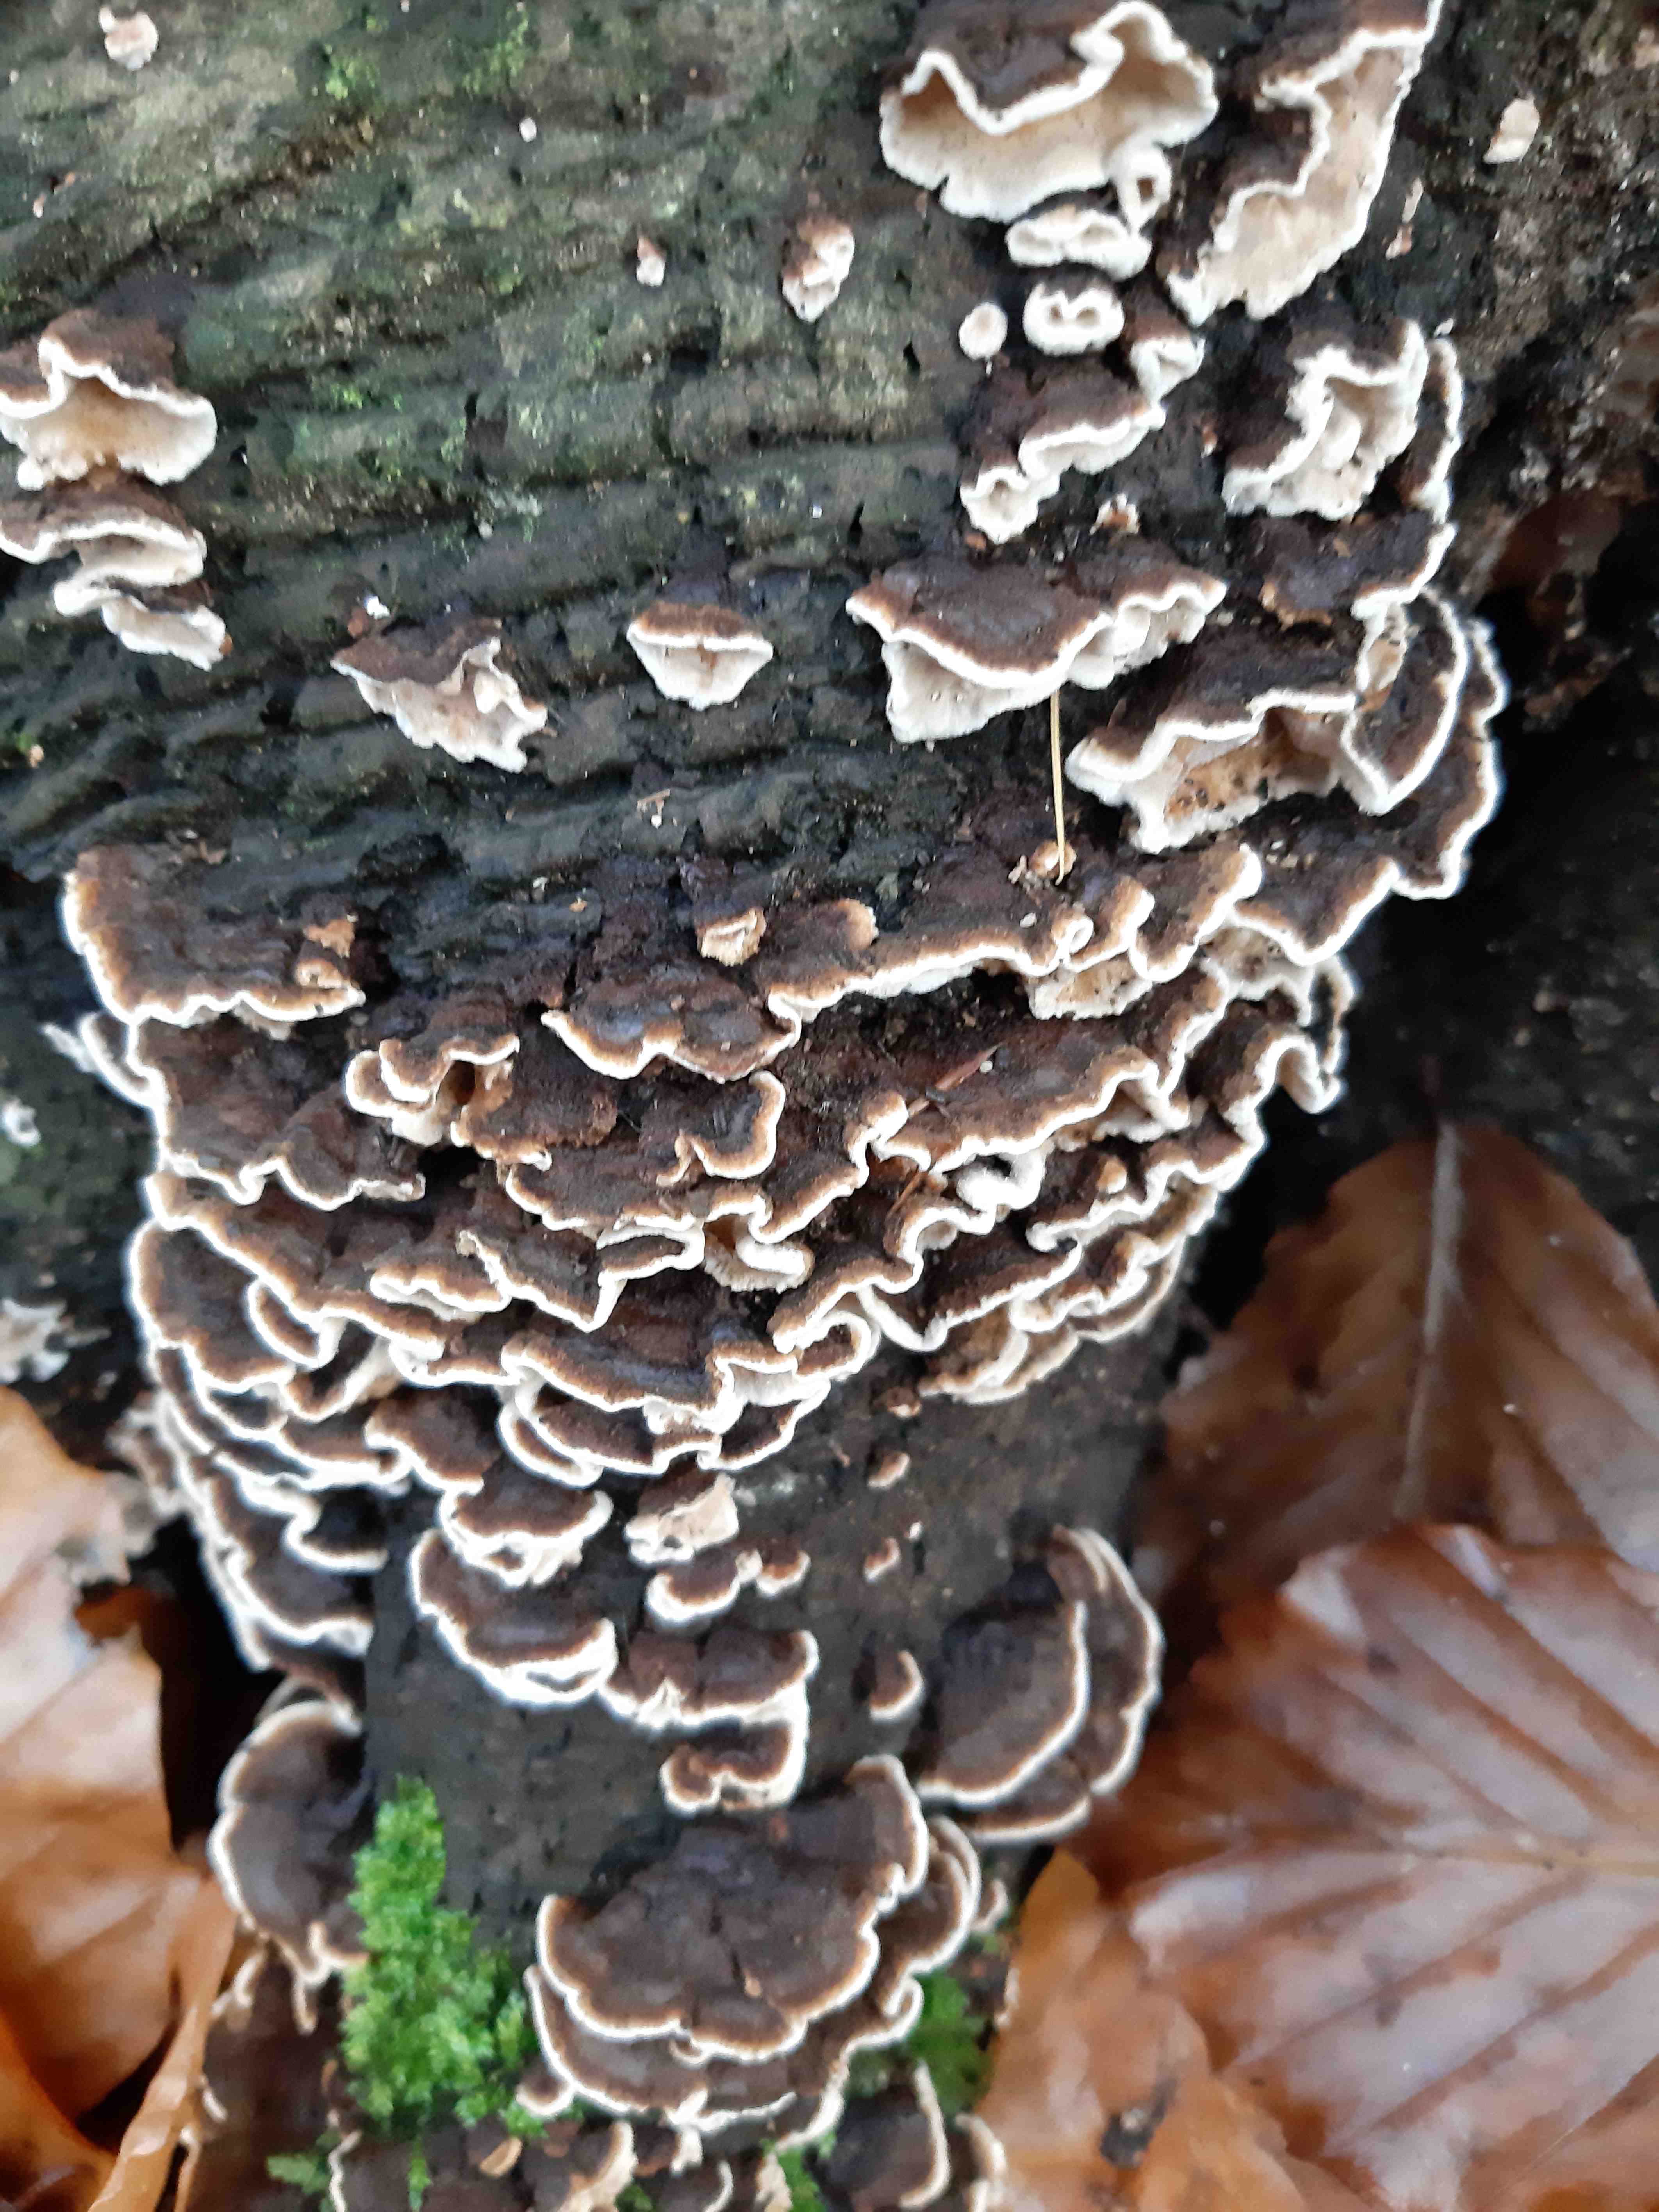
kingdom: Fungi
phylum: Basidiomycota
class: Agaricomycetes
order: Polyporales
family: Polyporaceae
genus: Trametes
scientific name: Trametes versicolor
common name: broget læderporesvamp
